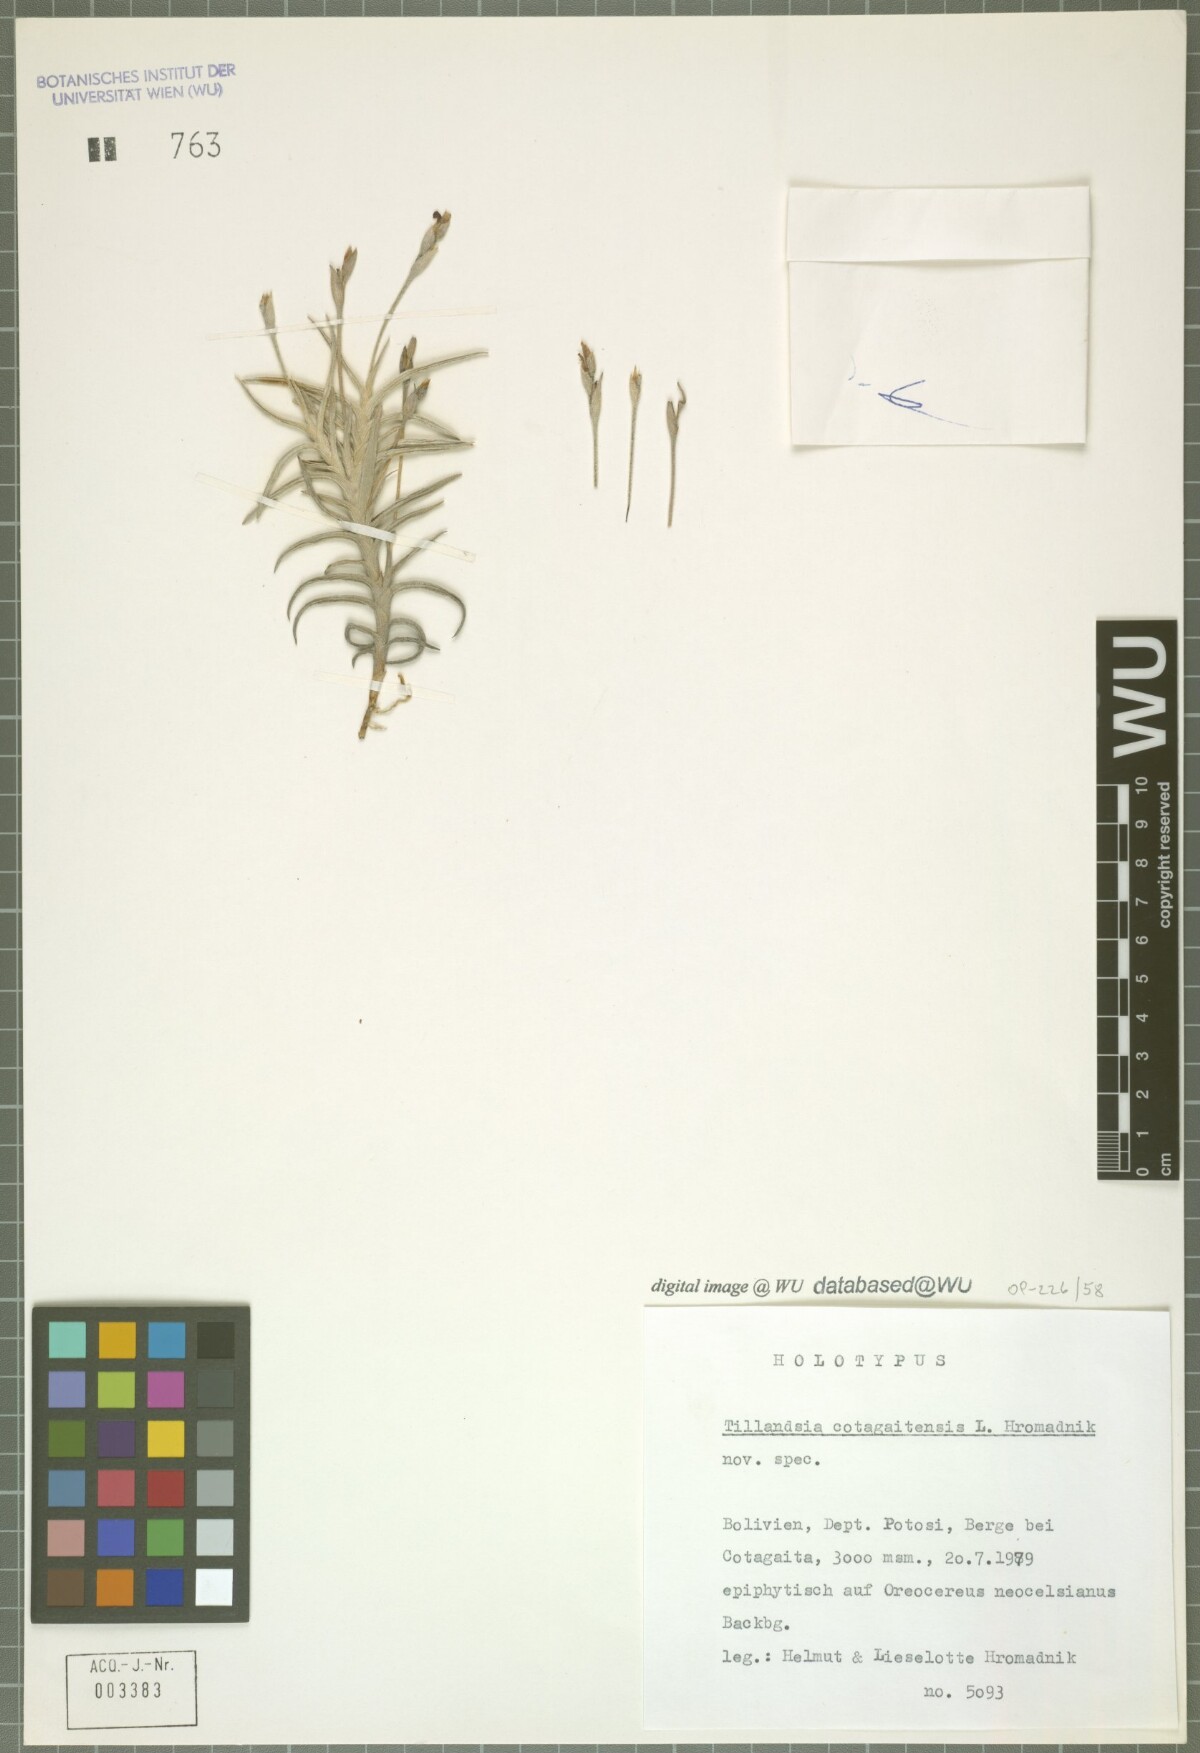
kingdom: Plantae
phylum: Tracheophyta
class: Liliopsida
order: Poales
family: Bromeliaceae
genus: Tillandsia
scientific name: Tillandsia cotagaitensis
